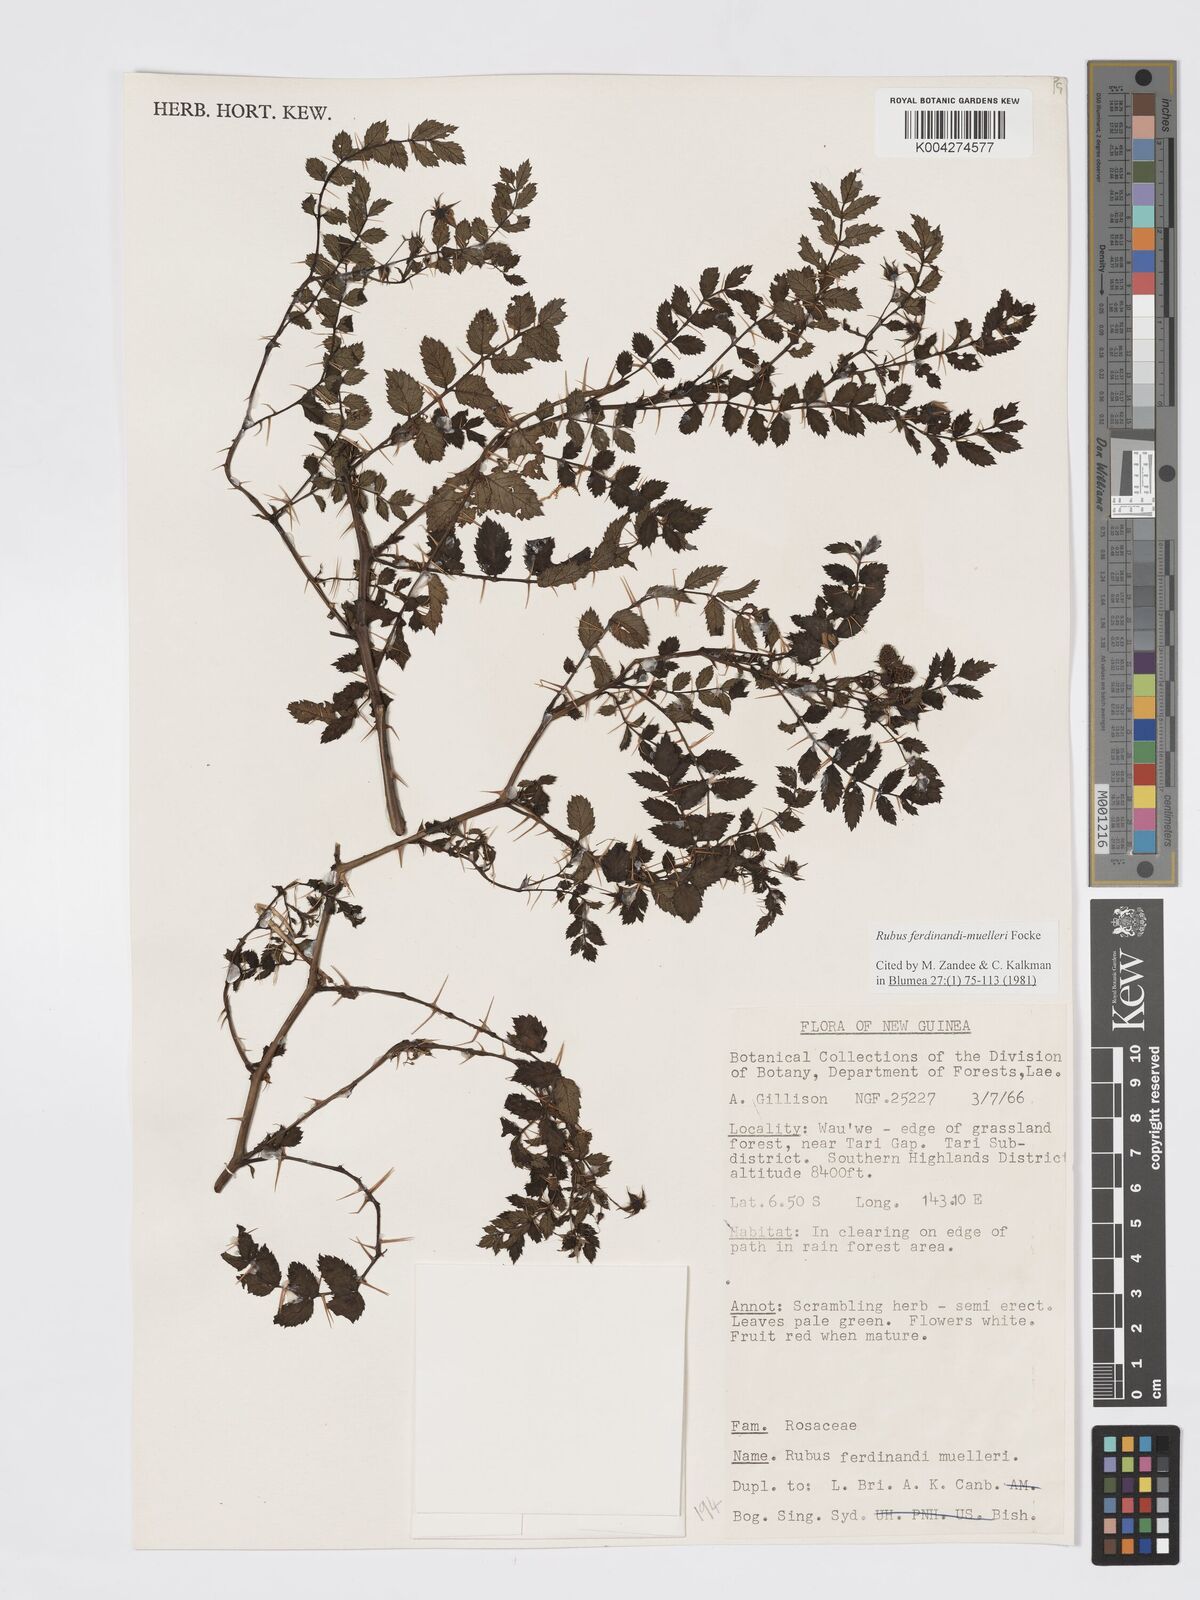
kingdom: Plantae
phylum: Tracheophyta
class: Magnoliopsida
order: Rosales
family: Rosaceae
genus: Rubus
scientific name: Rubus ferdinandimuelleri
